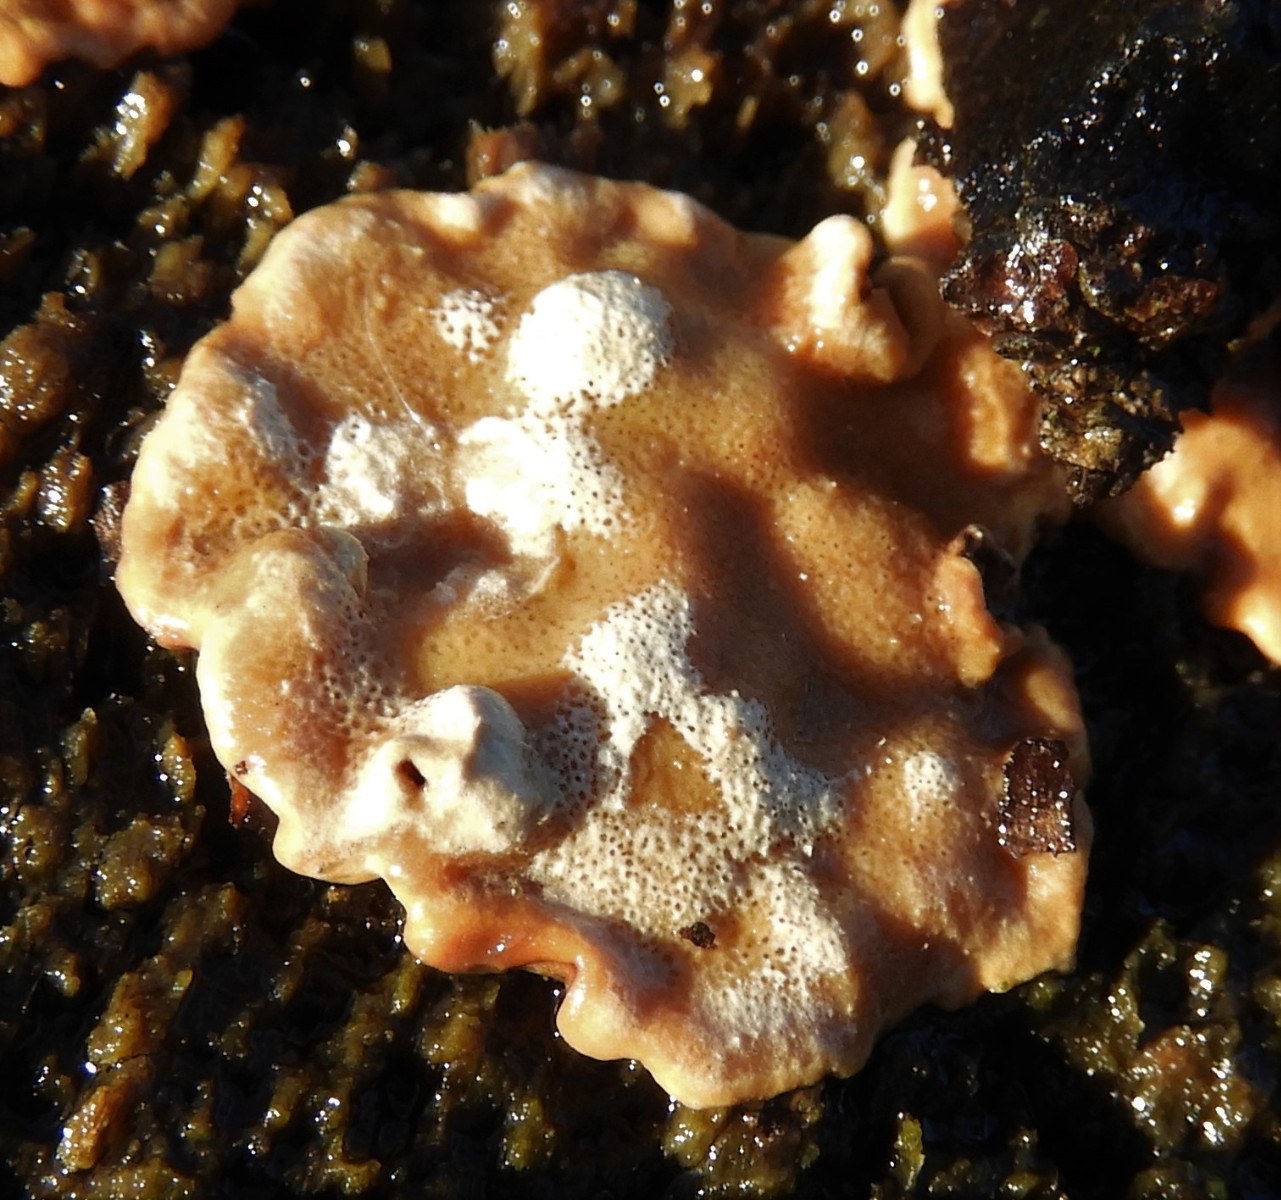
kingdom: Fungi
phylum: Basidiomycota
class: Agaricomycetes
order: Russulales
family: Bondarzewiaceae
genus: Heterobasidion
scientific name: Heterobasidion
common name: rodfordærver
